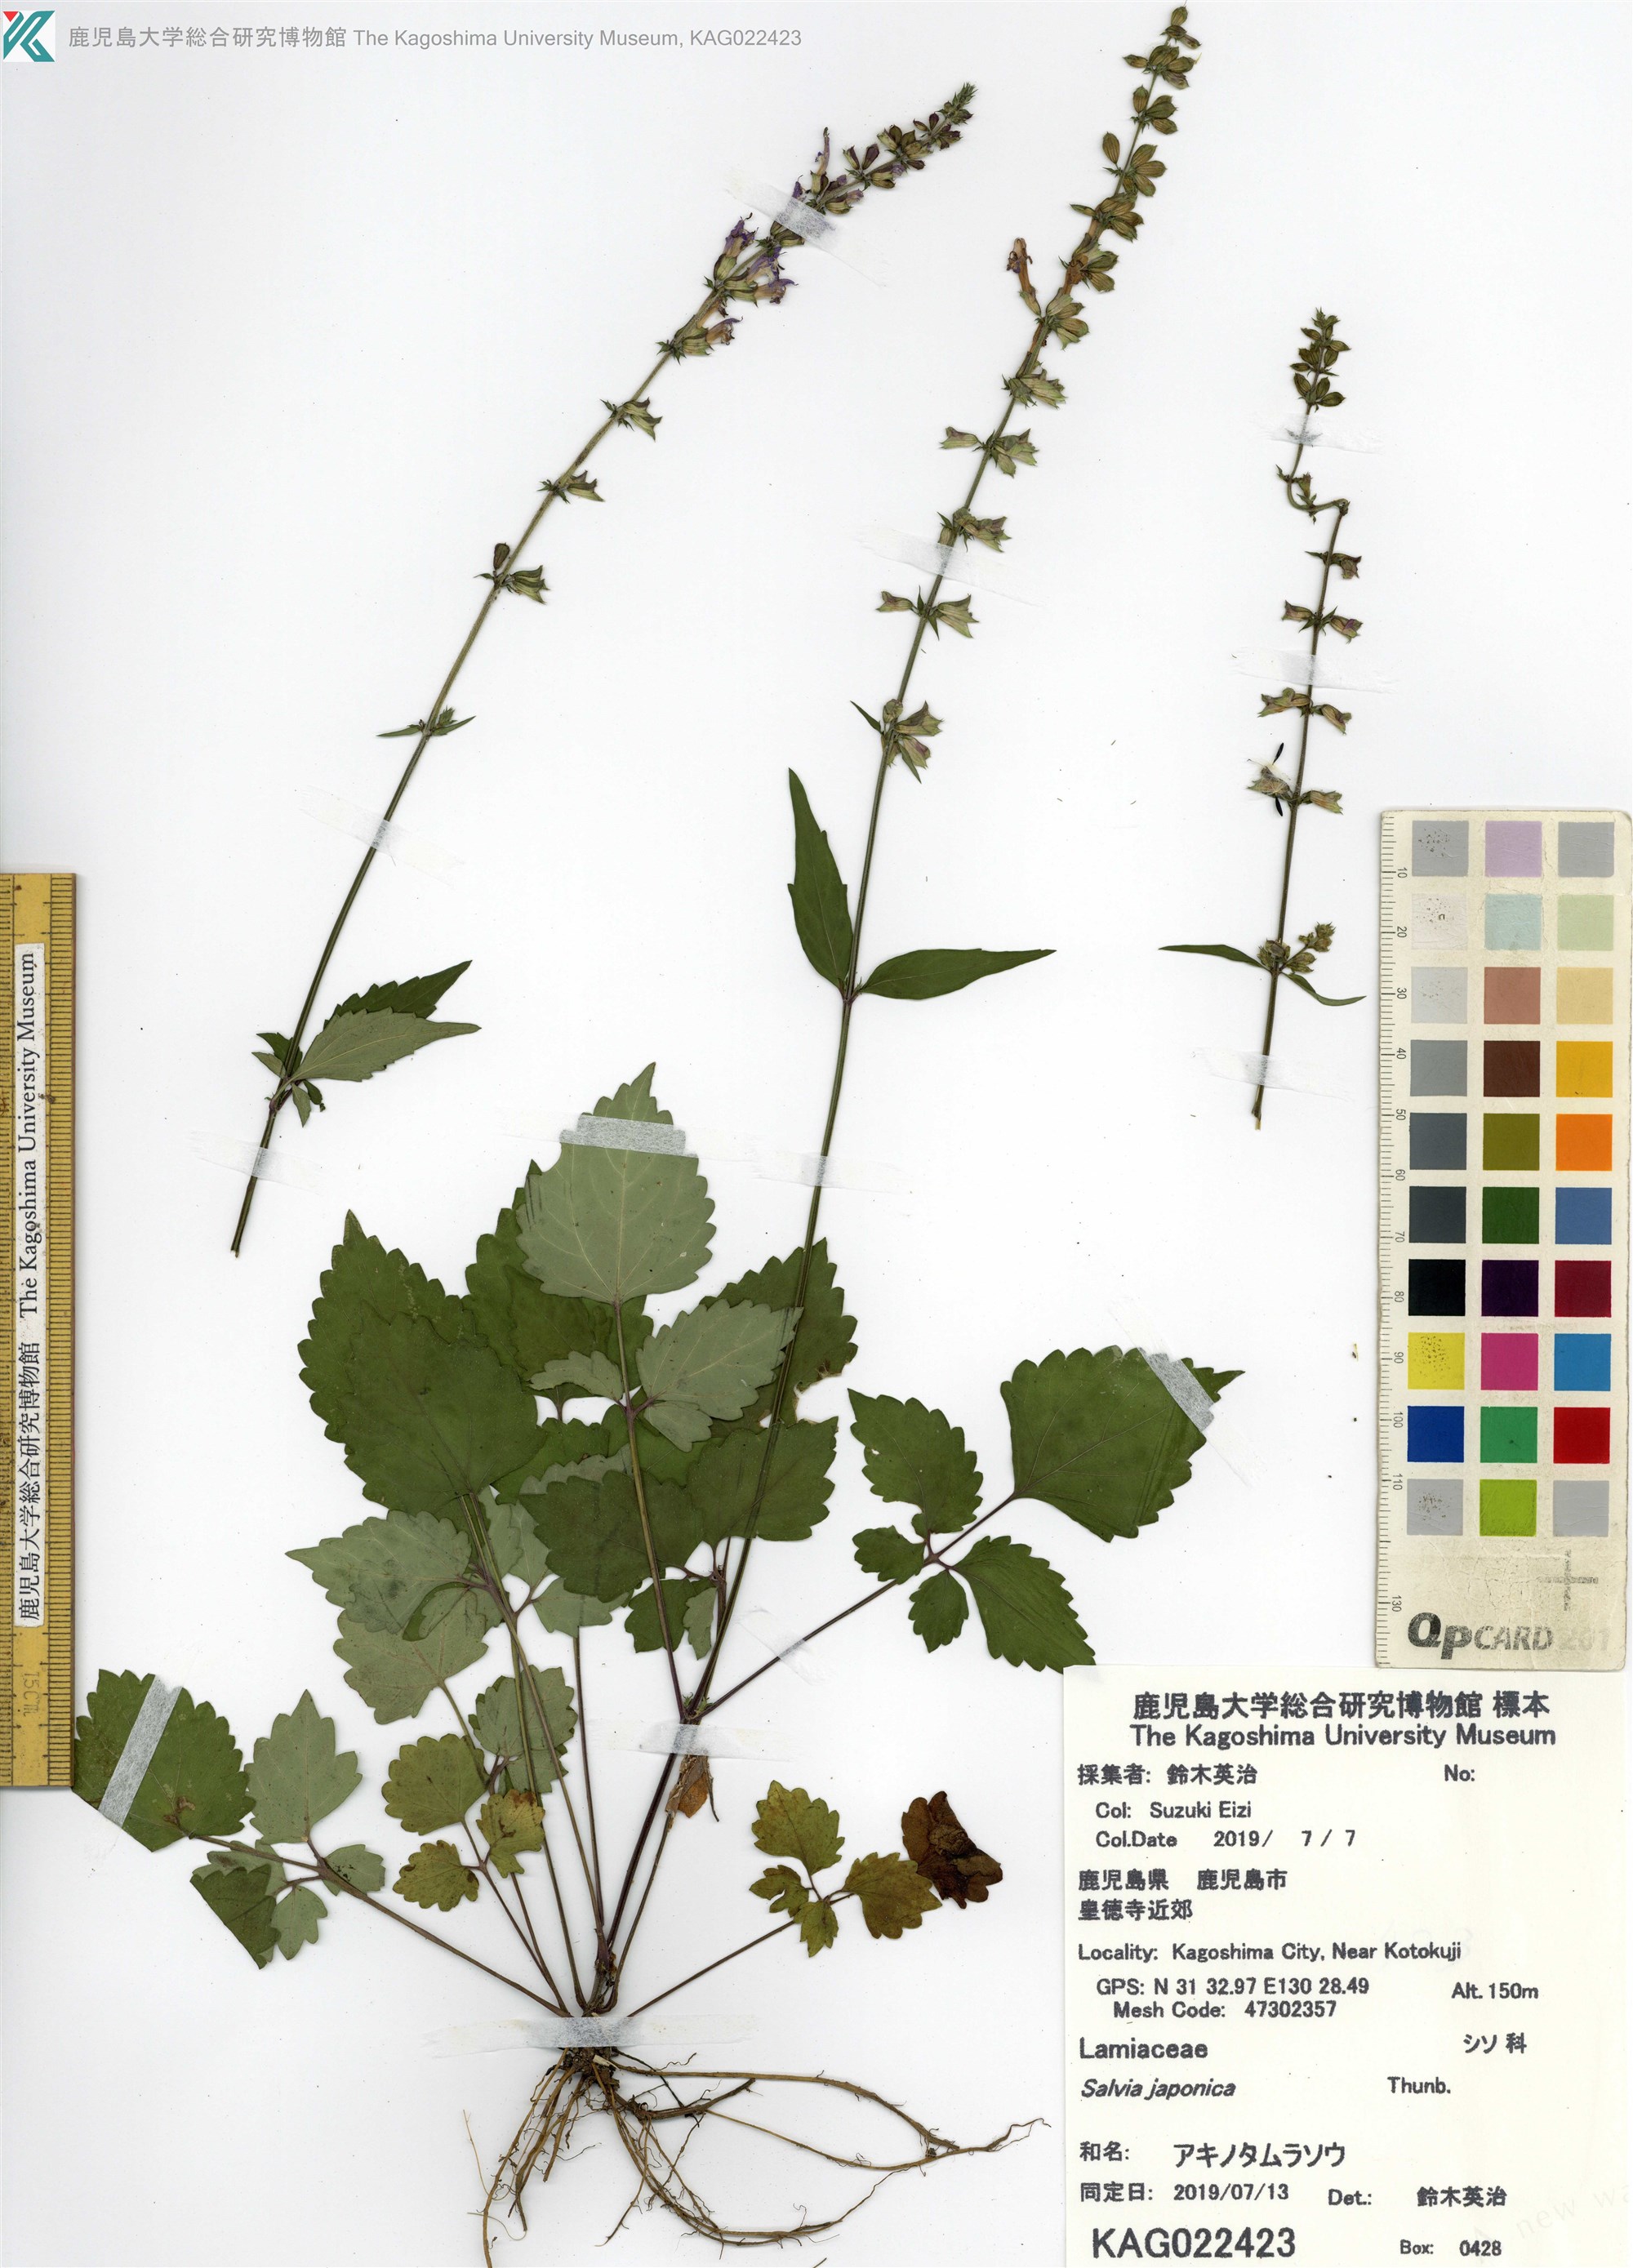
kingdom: Plantae
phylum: Tracheophyta
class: Magnoliopsida
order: Lamiales
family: Lamiaceae
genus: Salvia
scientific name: Salvia japonica
